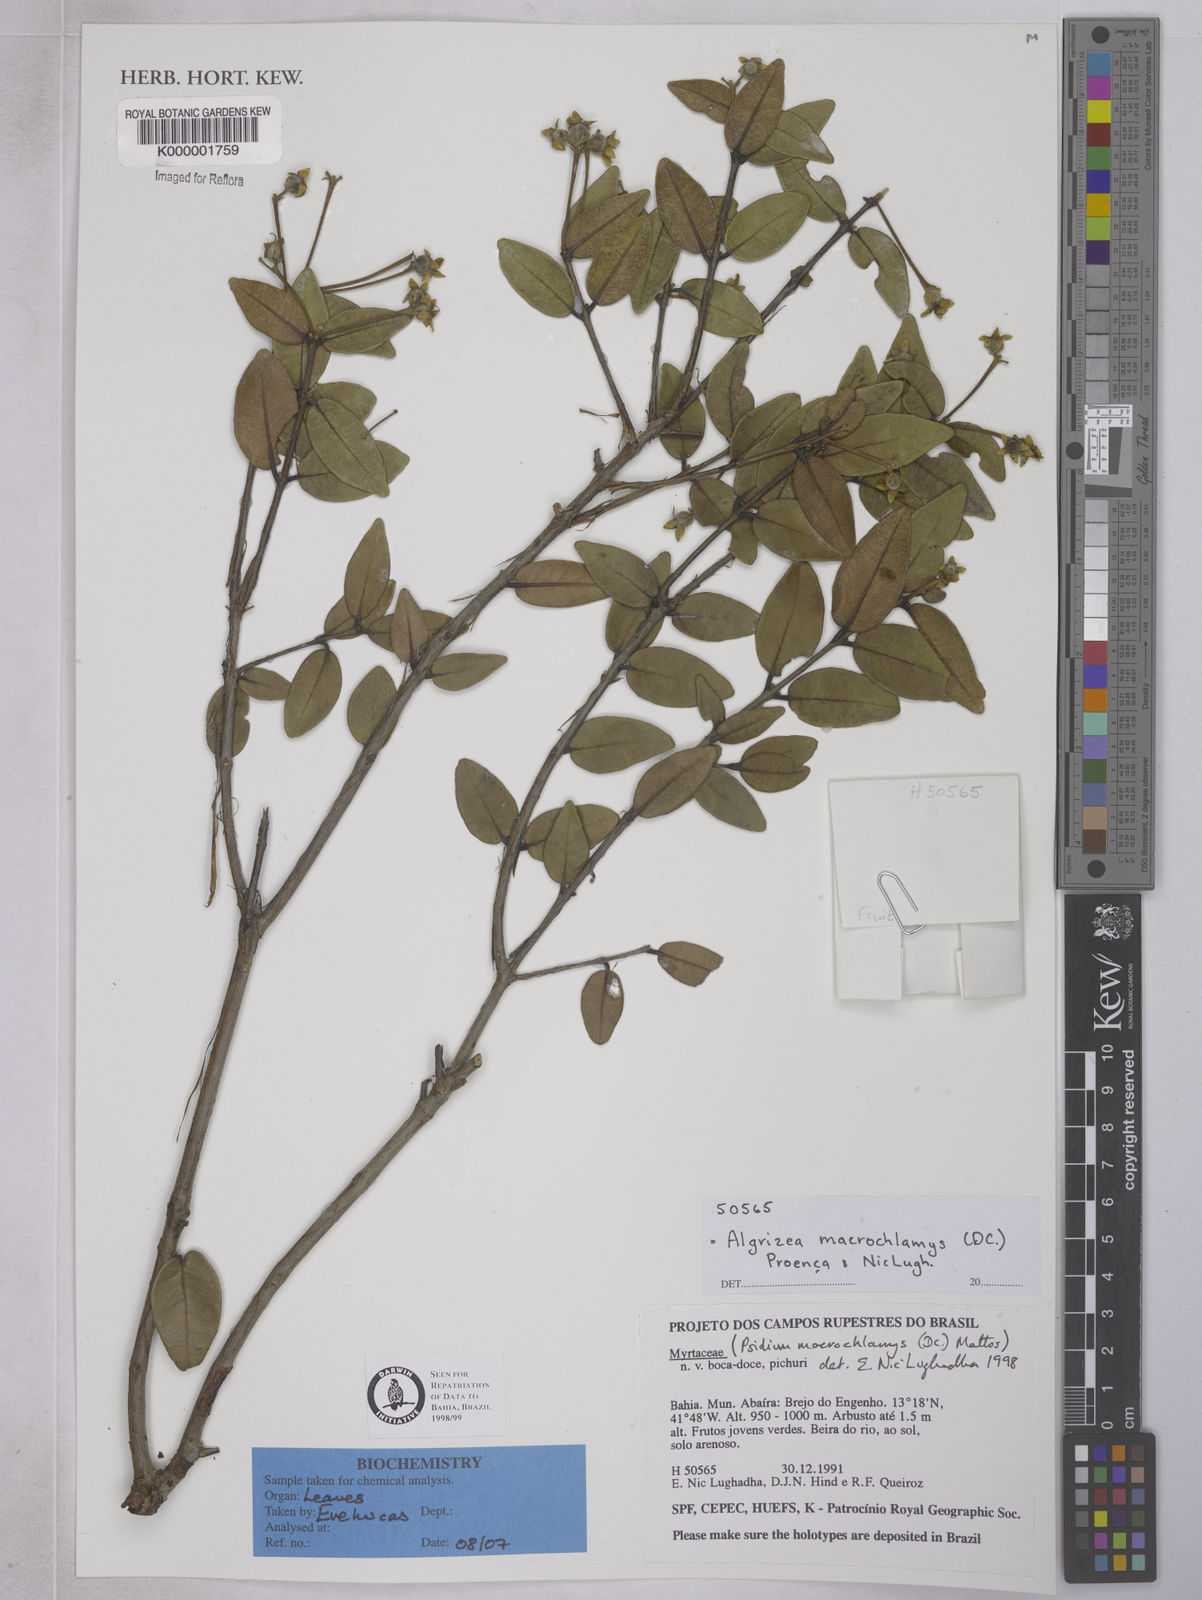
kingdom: Plantae
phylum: Tracheophyta
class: Magnoliopsida
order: Myrtales
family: Myrtaceae
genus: Algrizea
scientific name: Algrizea macrochlamys
